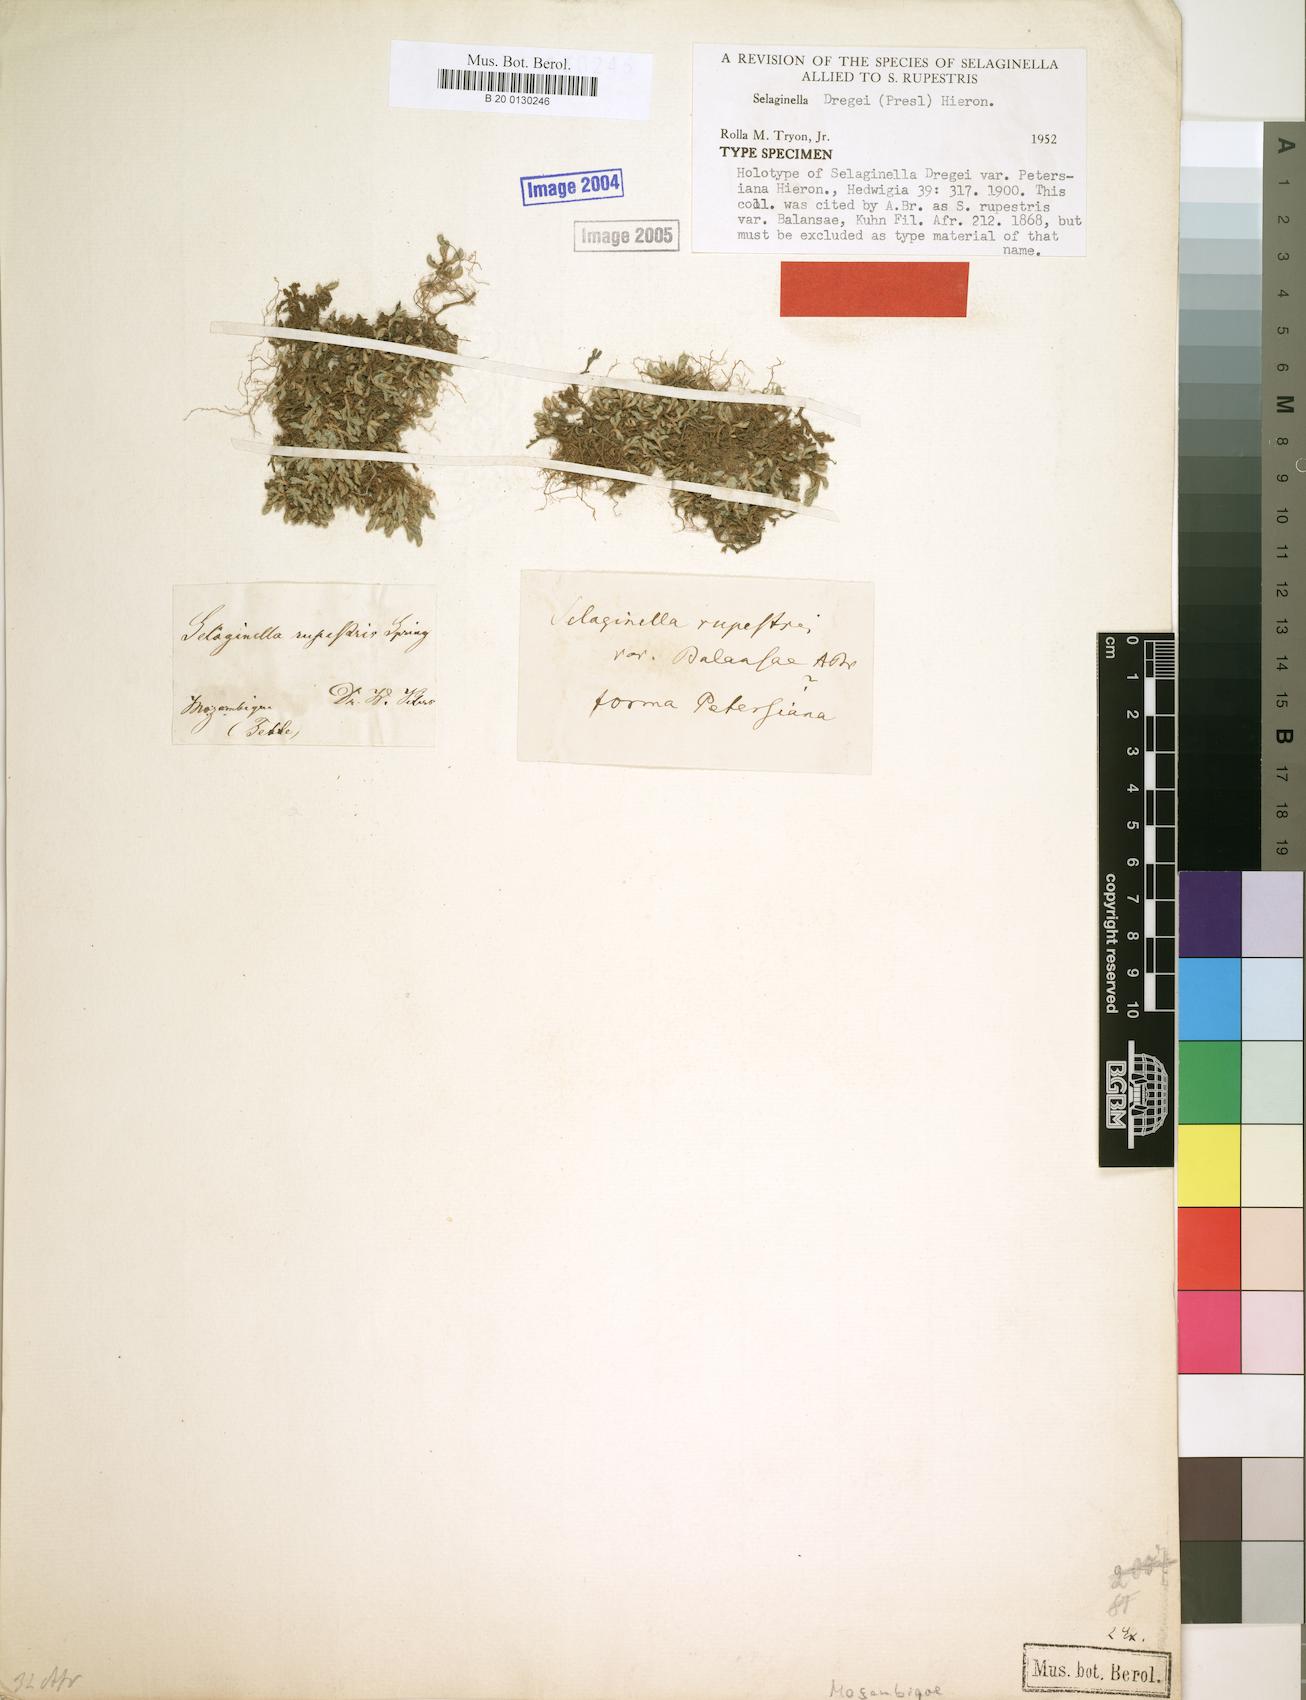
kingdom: Plantae
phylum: Tracheophyta
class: Lycopodiopsida
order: Selaginellales
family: Selaginellaceae
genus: Selaginella
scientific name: Selaginella dregei
